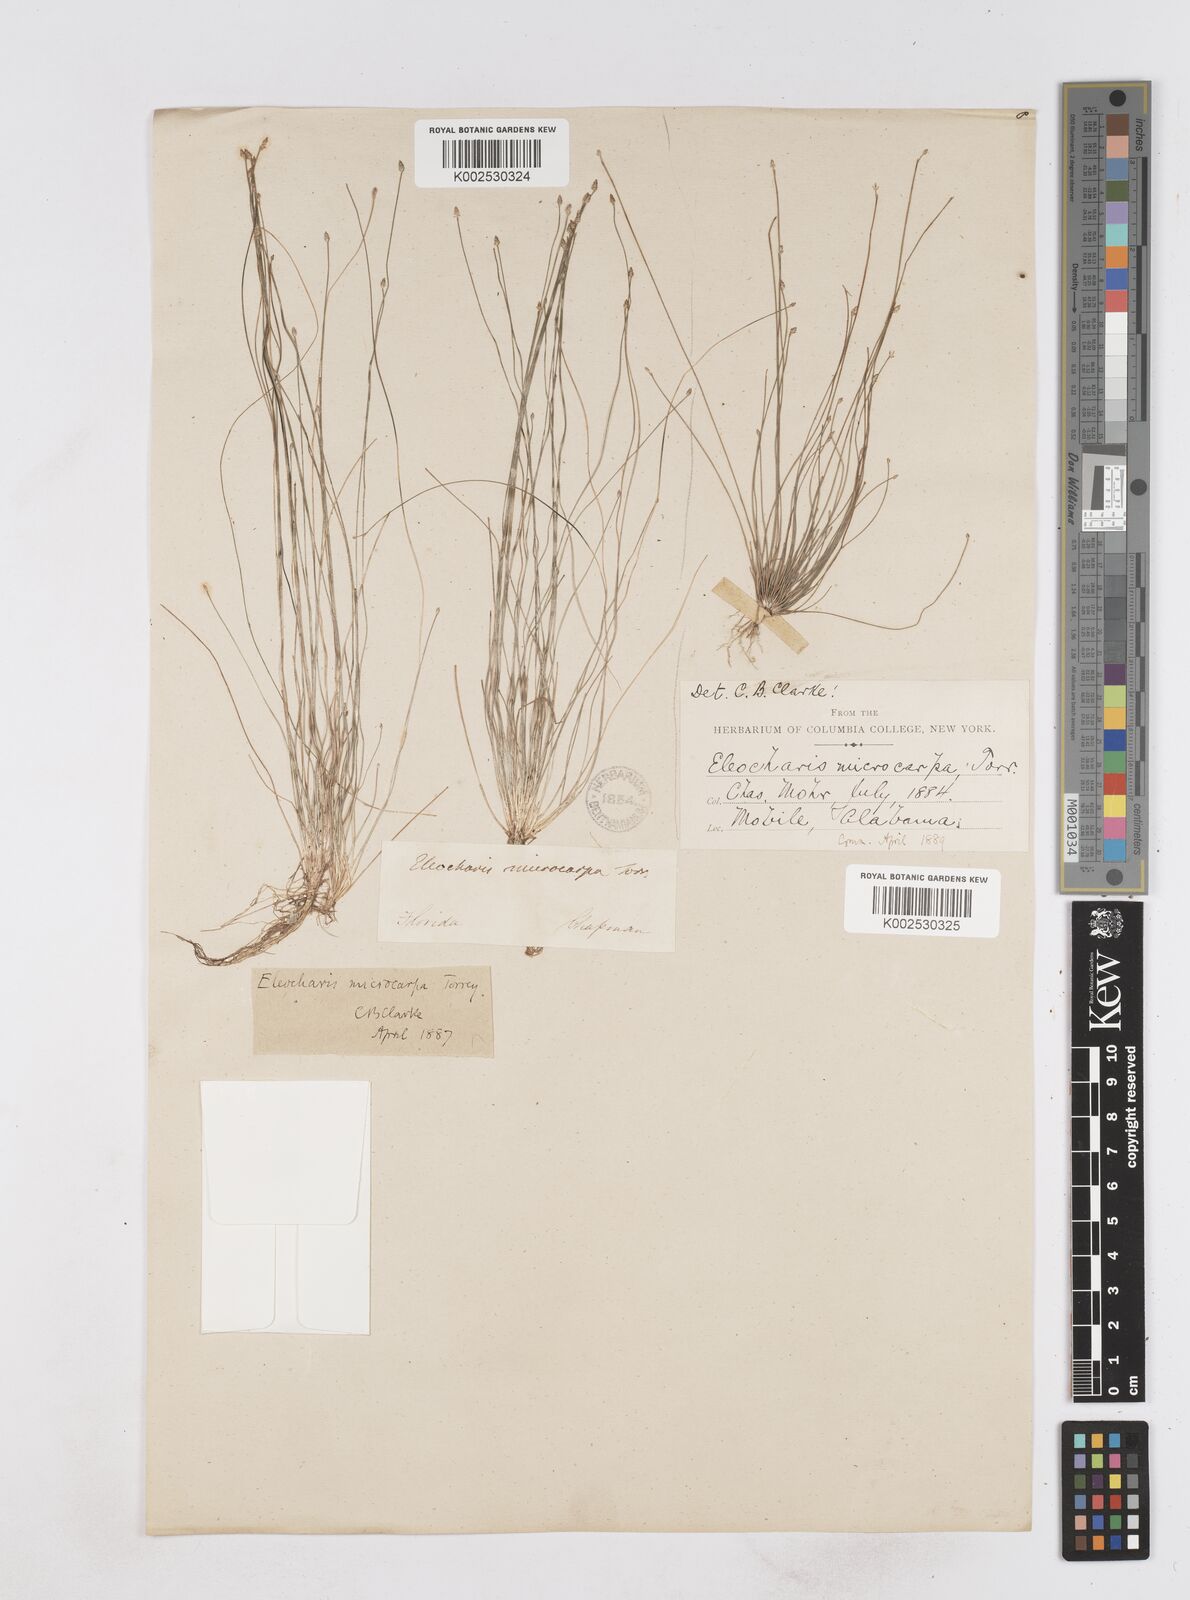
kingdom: Plantae
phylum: Tracheophyta
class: Liliopsida
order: Poales
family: Cyperaceae
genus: Eleocharis
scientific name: Eleocharis microcarpa
